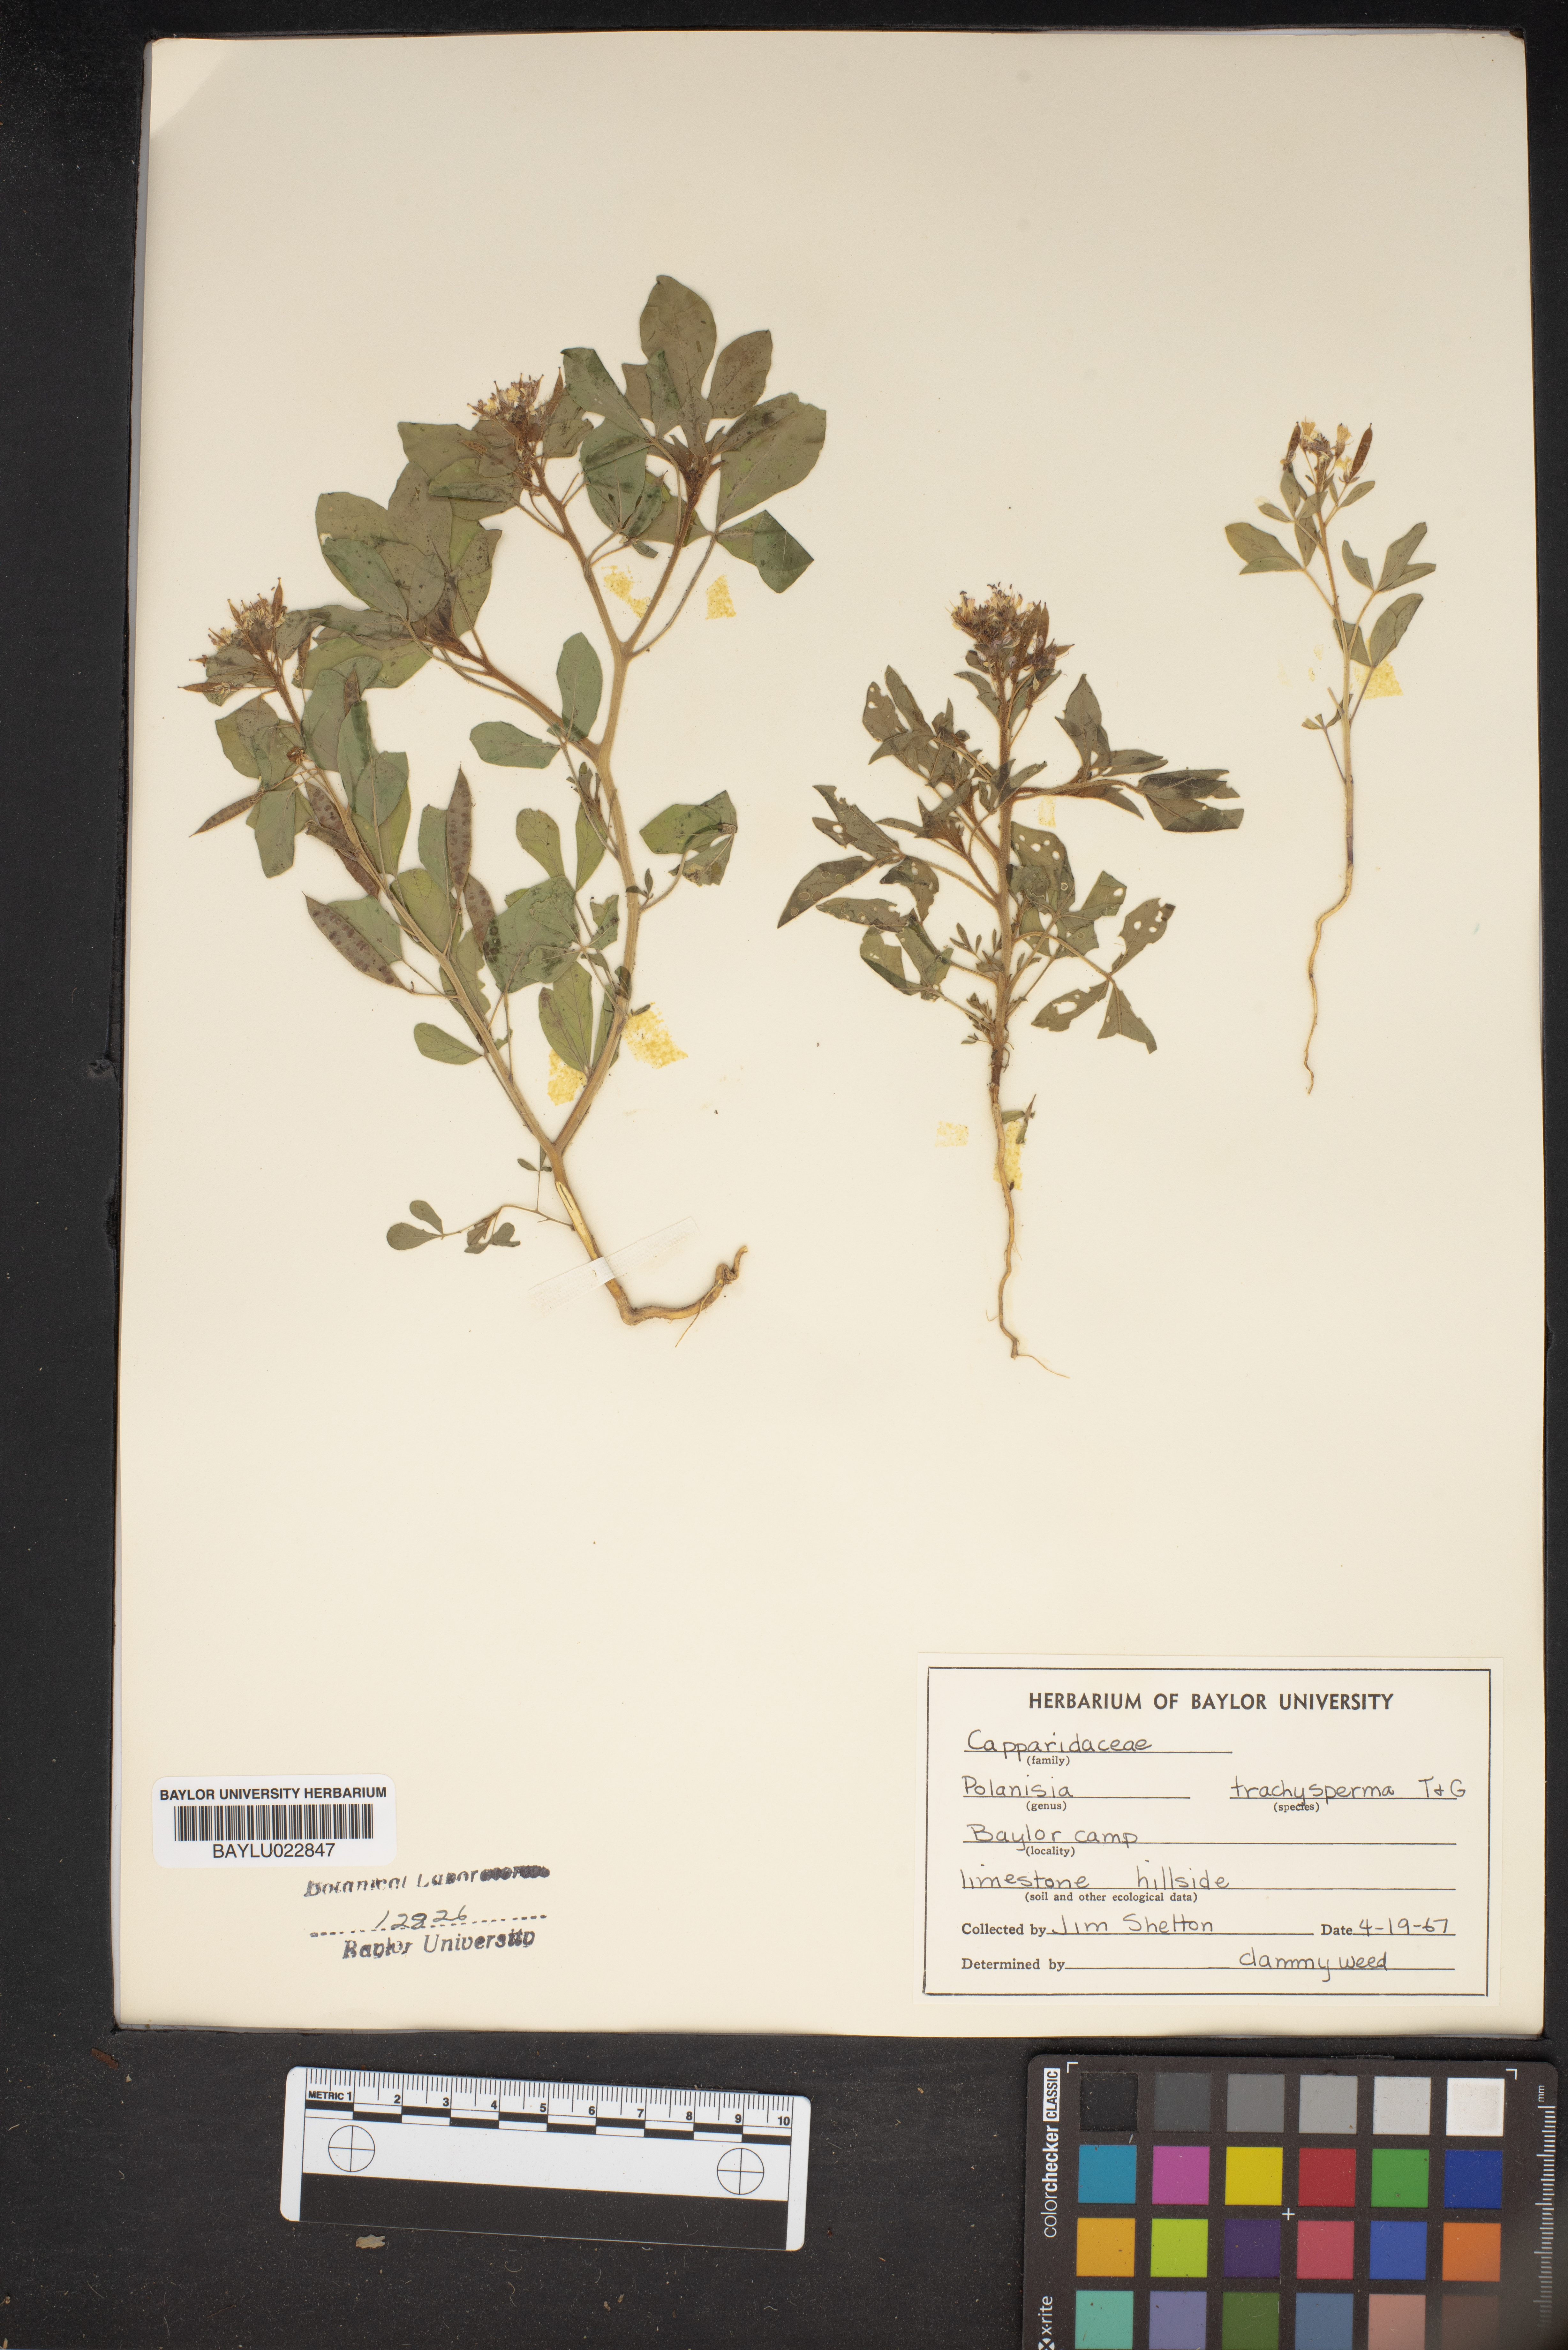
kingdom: Plantae
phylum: Tracheophyta
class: Magnoliopsida
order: Brassicales
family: Cleomaceae
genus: Polanisia
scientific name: Polanisia trachysperma
